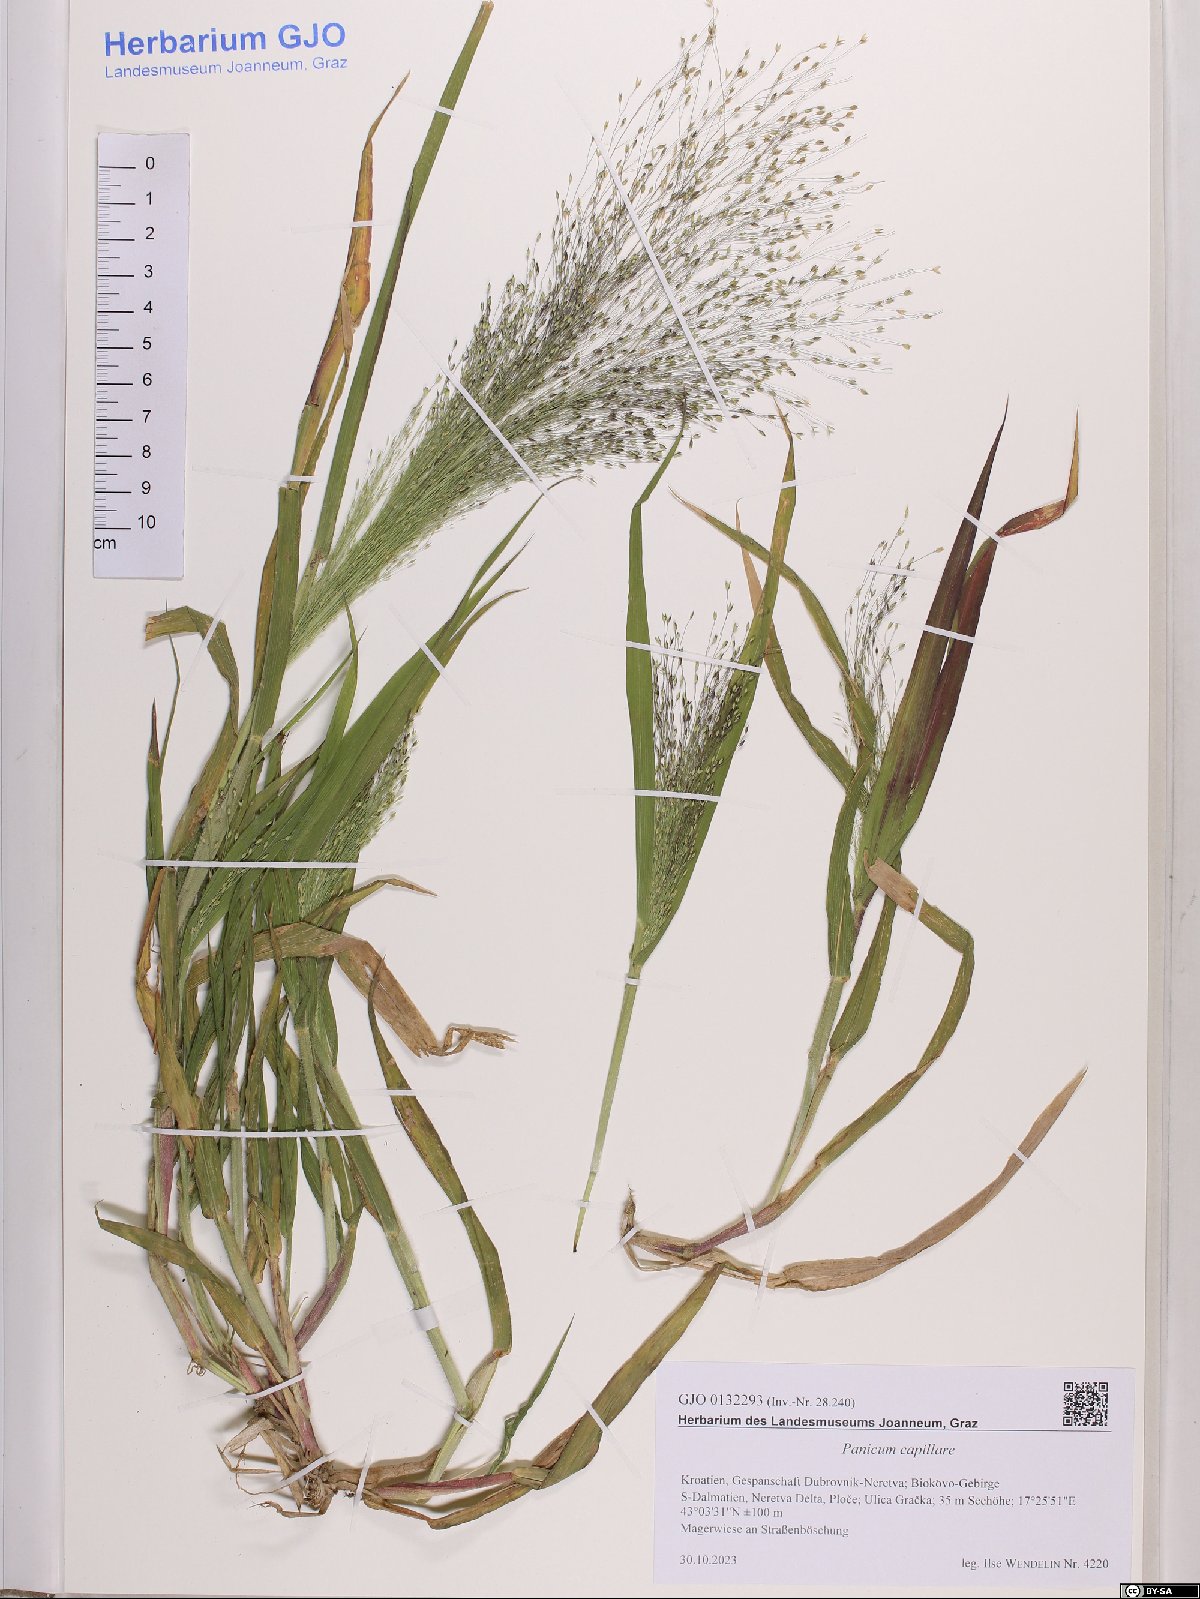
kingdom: Plantae
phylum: Tracheophyta
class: Liliopsida
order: Poales
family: Poaceae
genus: Panicum
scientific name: Panicum capillare
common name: Witch-grass
